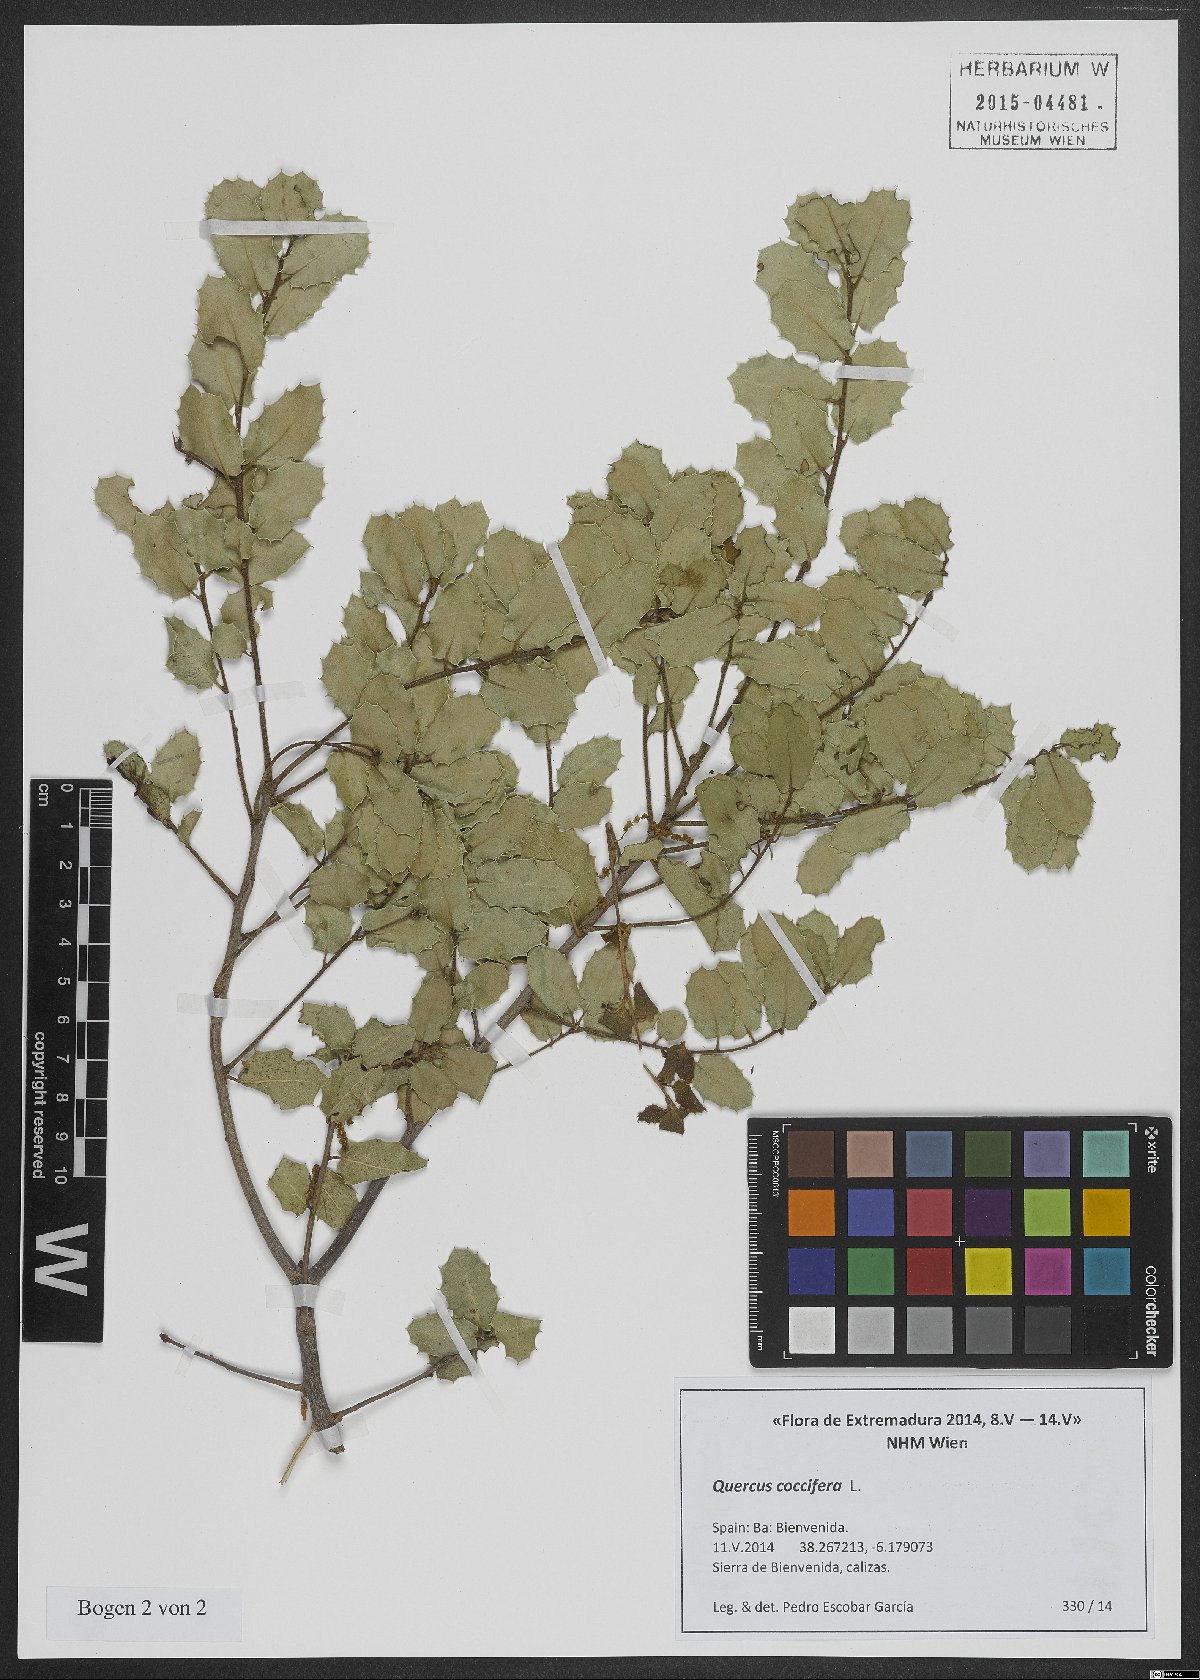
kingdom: Plantae
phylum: Tracheophyta
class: Magnoliopsida
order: Fagales
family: Fagaceae
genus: Quercus
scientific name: Quercus coccifera
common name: Kermes oak
